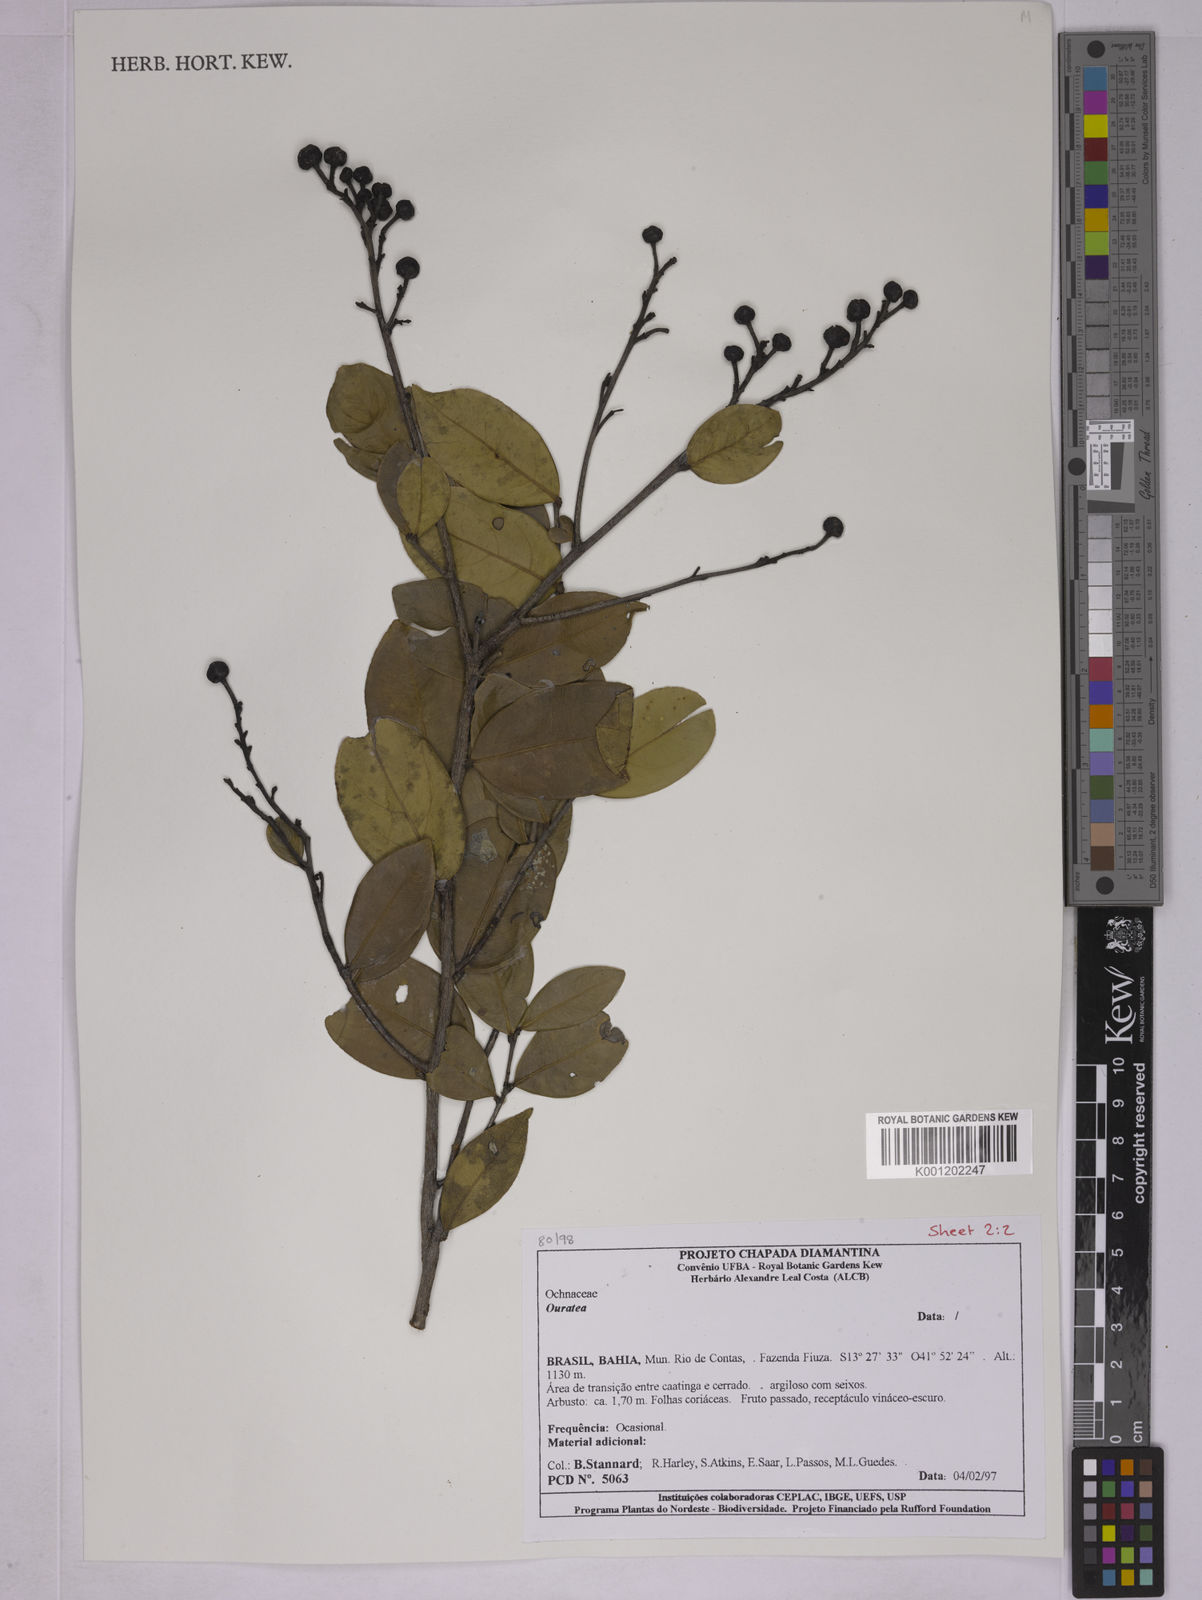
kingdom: Plantae
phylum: Tracheophyta
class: Magnoliopsida
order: Malpighiales
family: Ochnaceae
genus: Ouratea
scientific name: Ouratea
